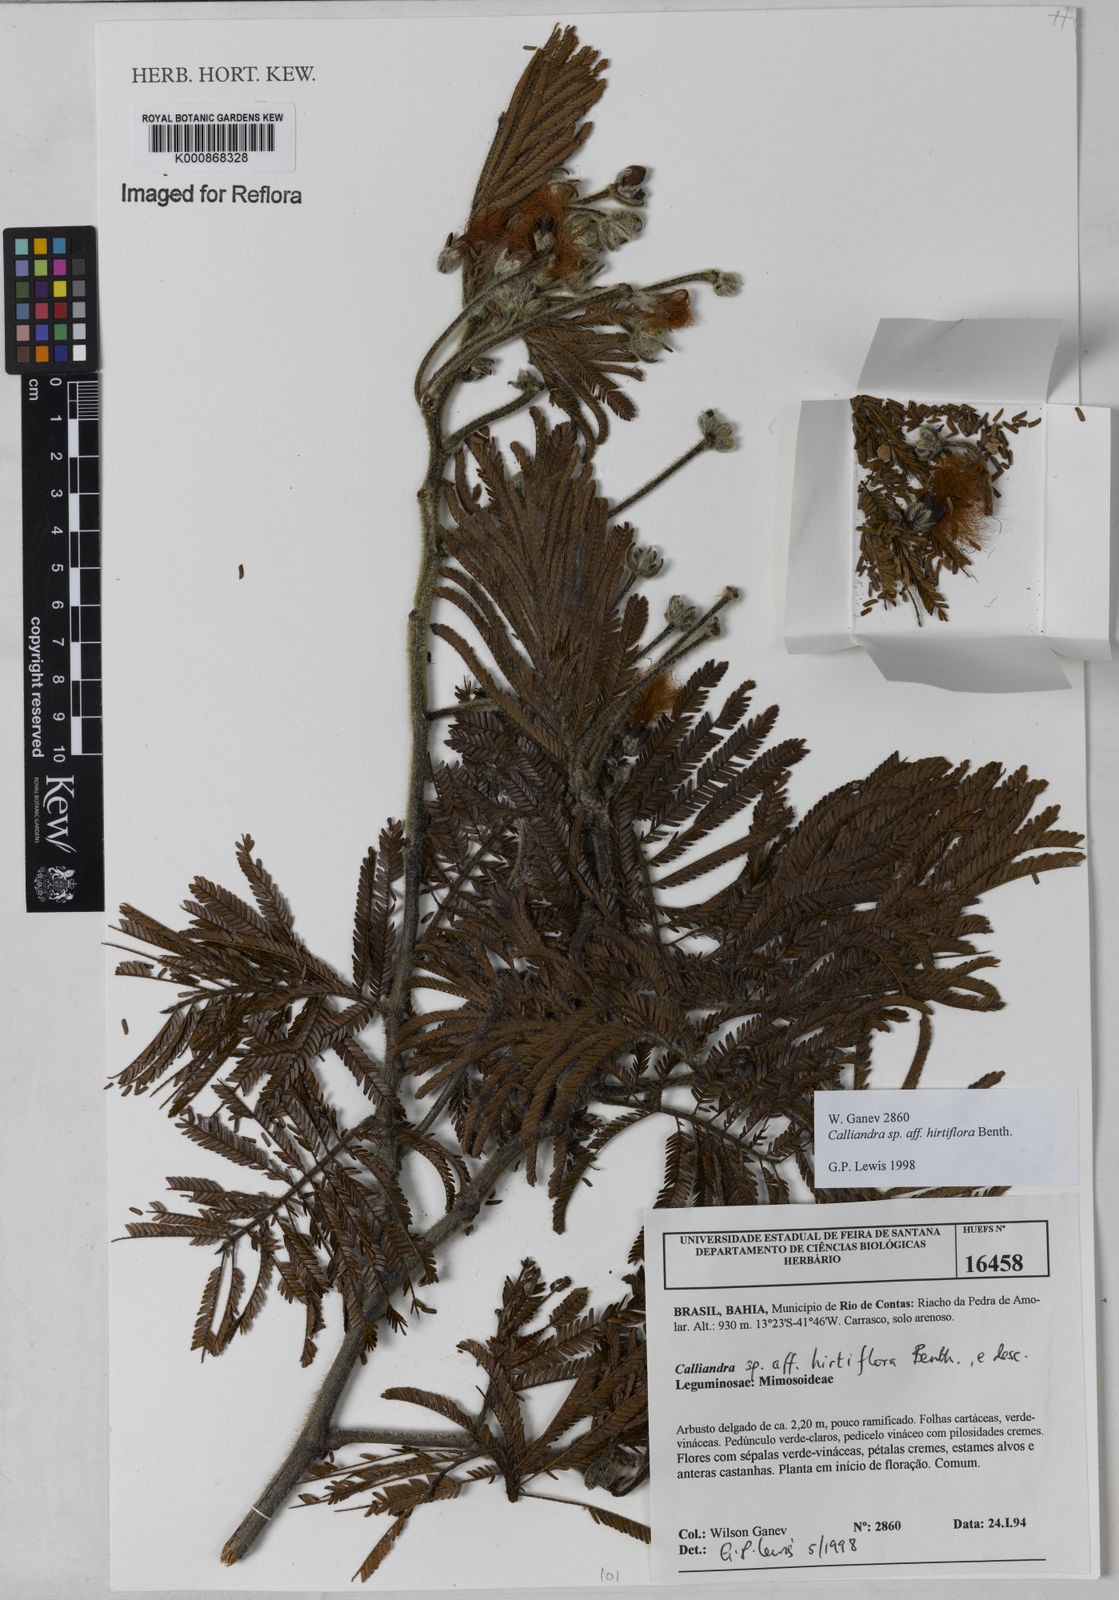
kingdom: Plantae
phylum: Tracheophyta
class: Magnoliopsida
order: Fabales
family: Fabaceae
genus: Calliandra
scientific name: Calliandra hirtiflora
